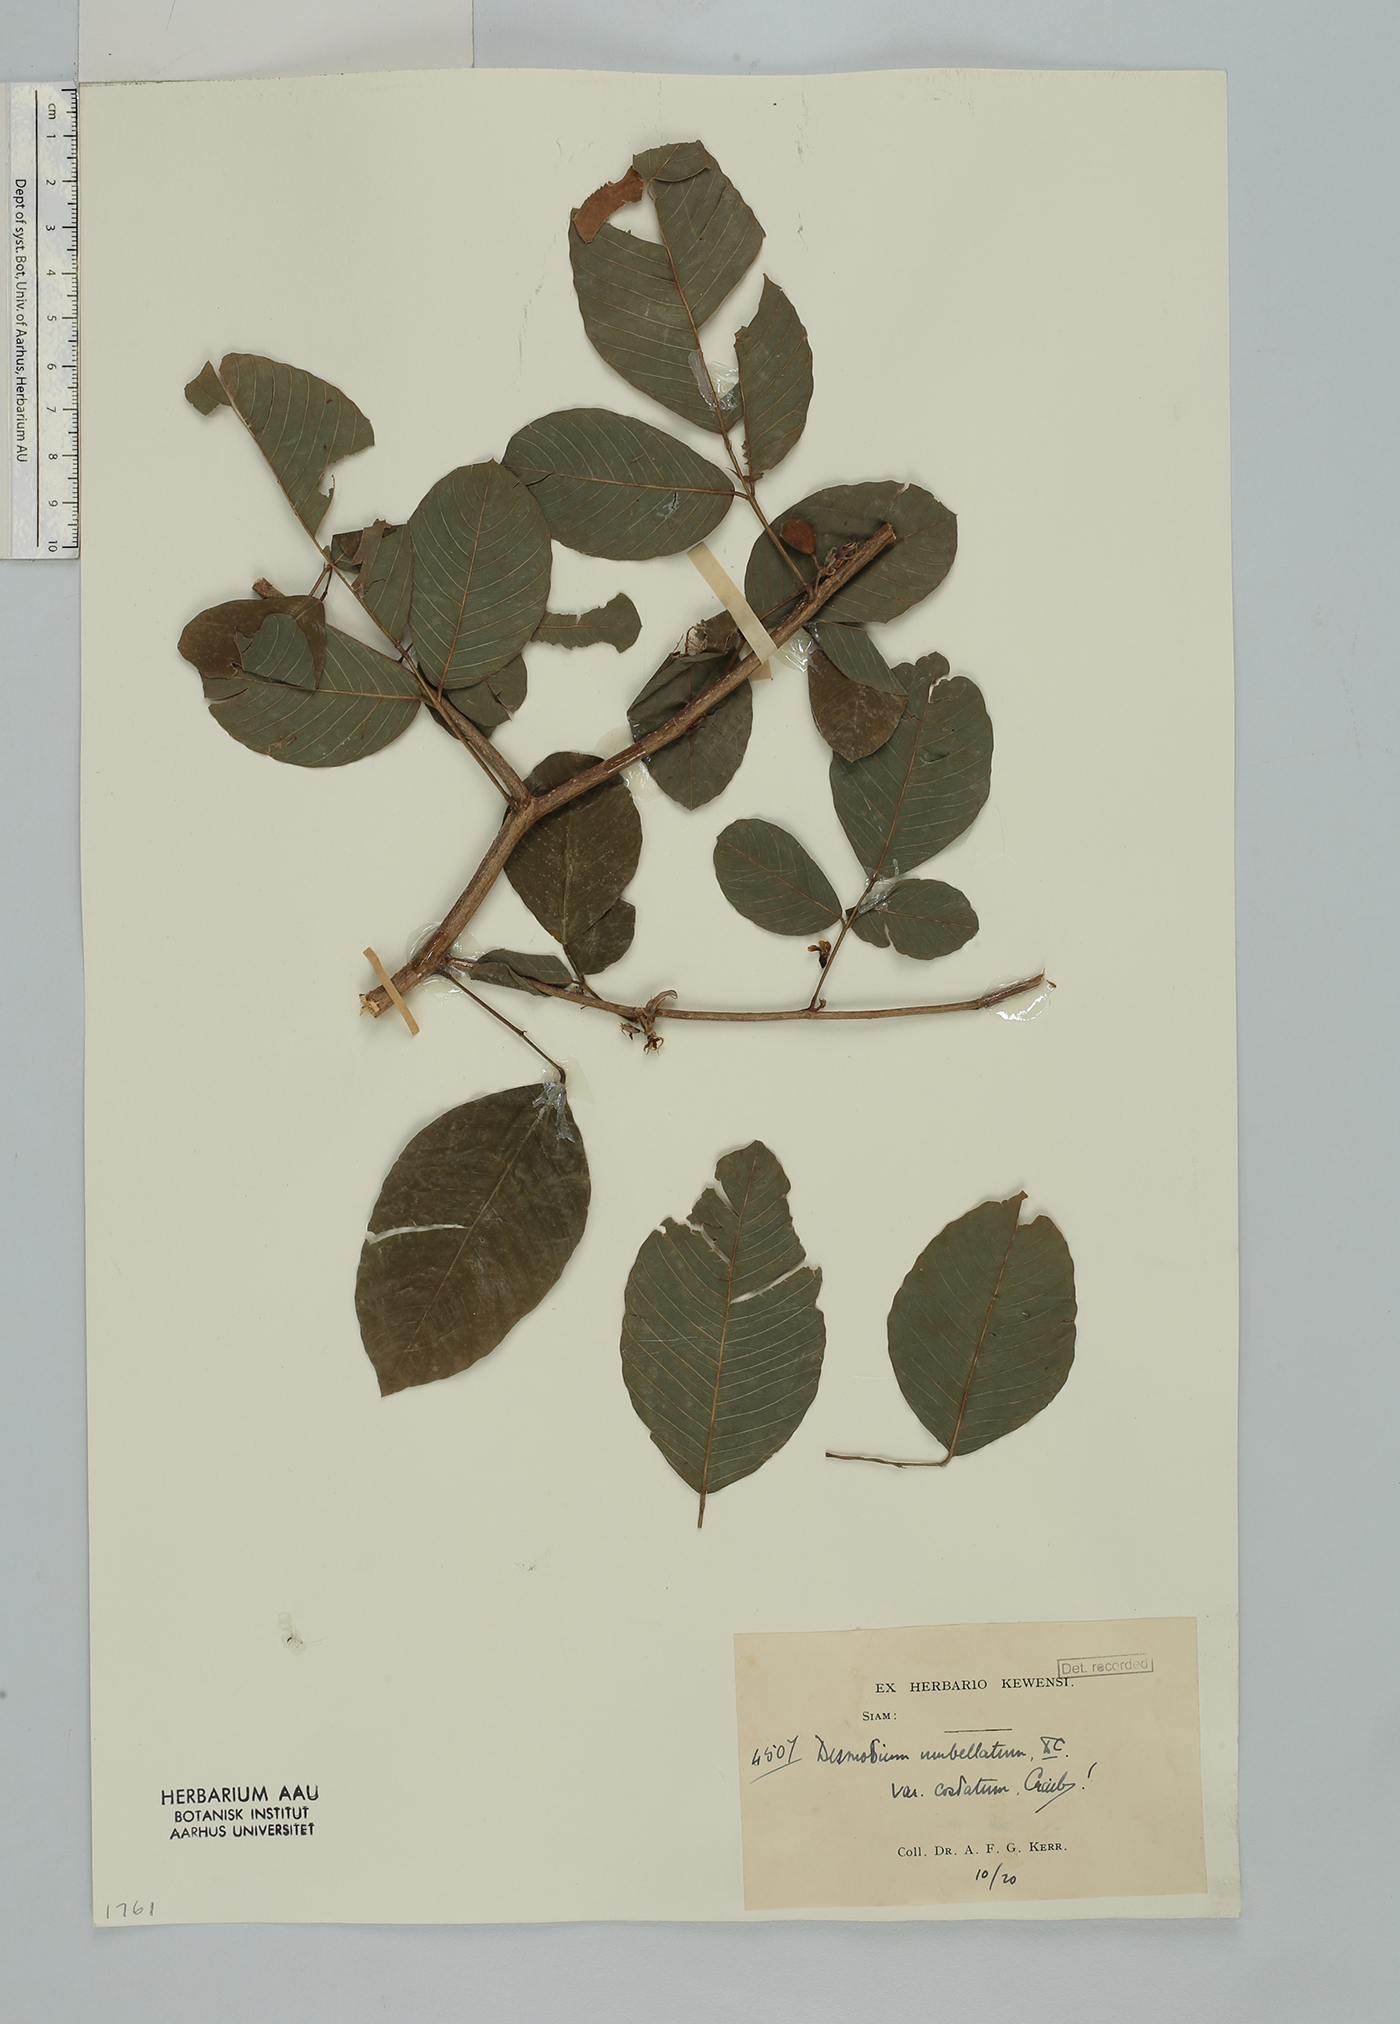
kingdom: Plantae
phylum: Tracheophyta
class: Magnoliopsida
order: Fabales
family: Fabaceae
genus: Dendrolobium
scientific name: Dendrolobium umbellatum
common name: Horsebush
